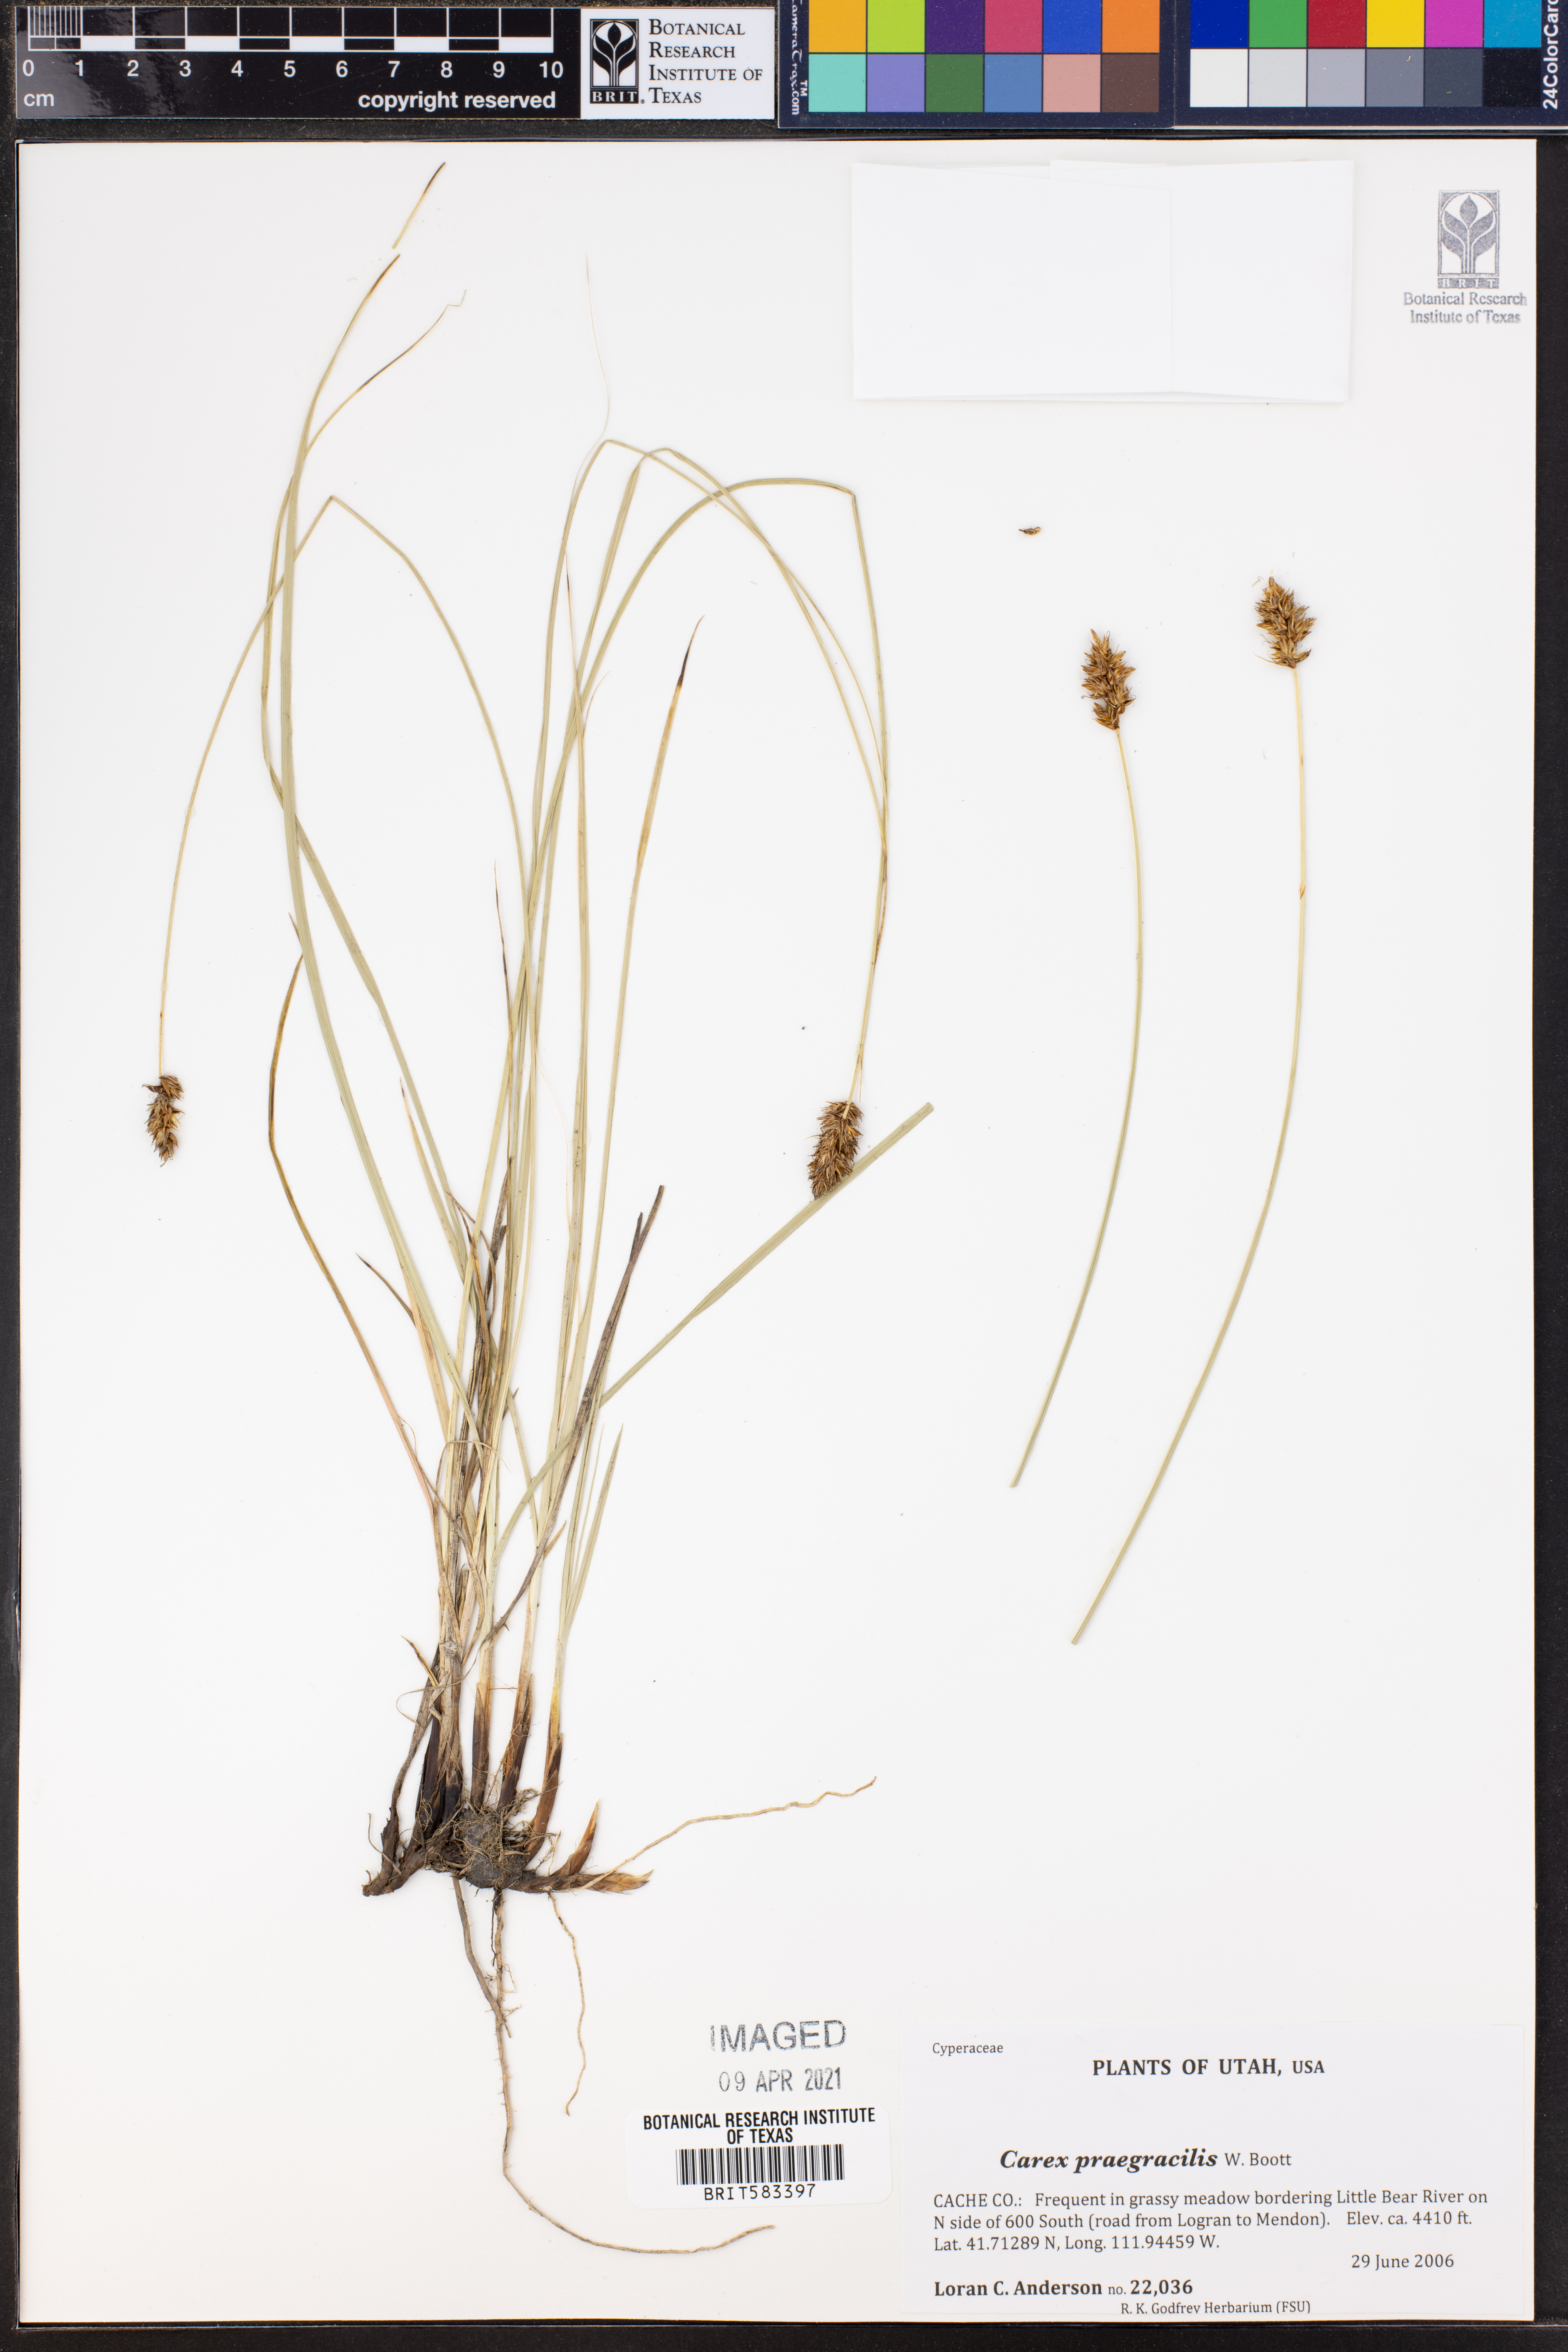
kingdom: Plantae
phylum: Tracheophyta
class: Liliopsida
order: Poales
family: Cyperaceae
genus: Carex
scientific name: Carex praegracilis
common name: Black creeper sedge
